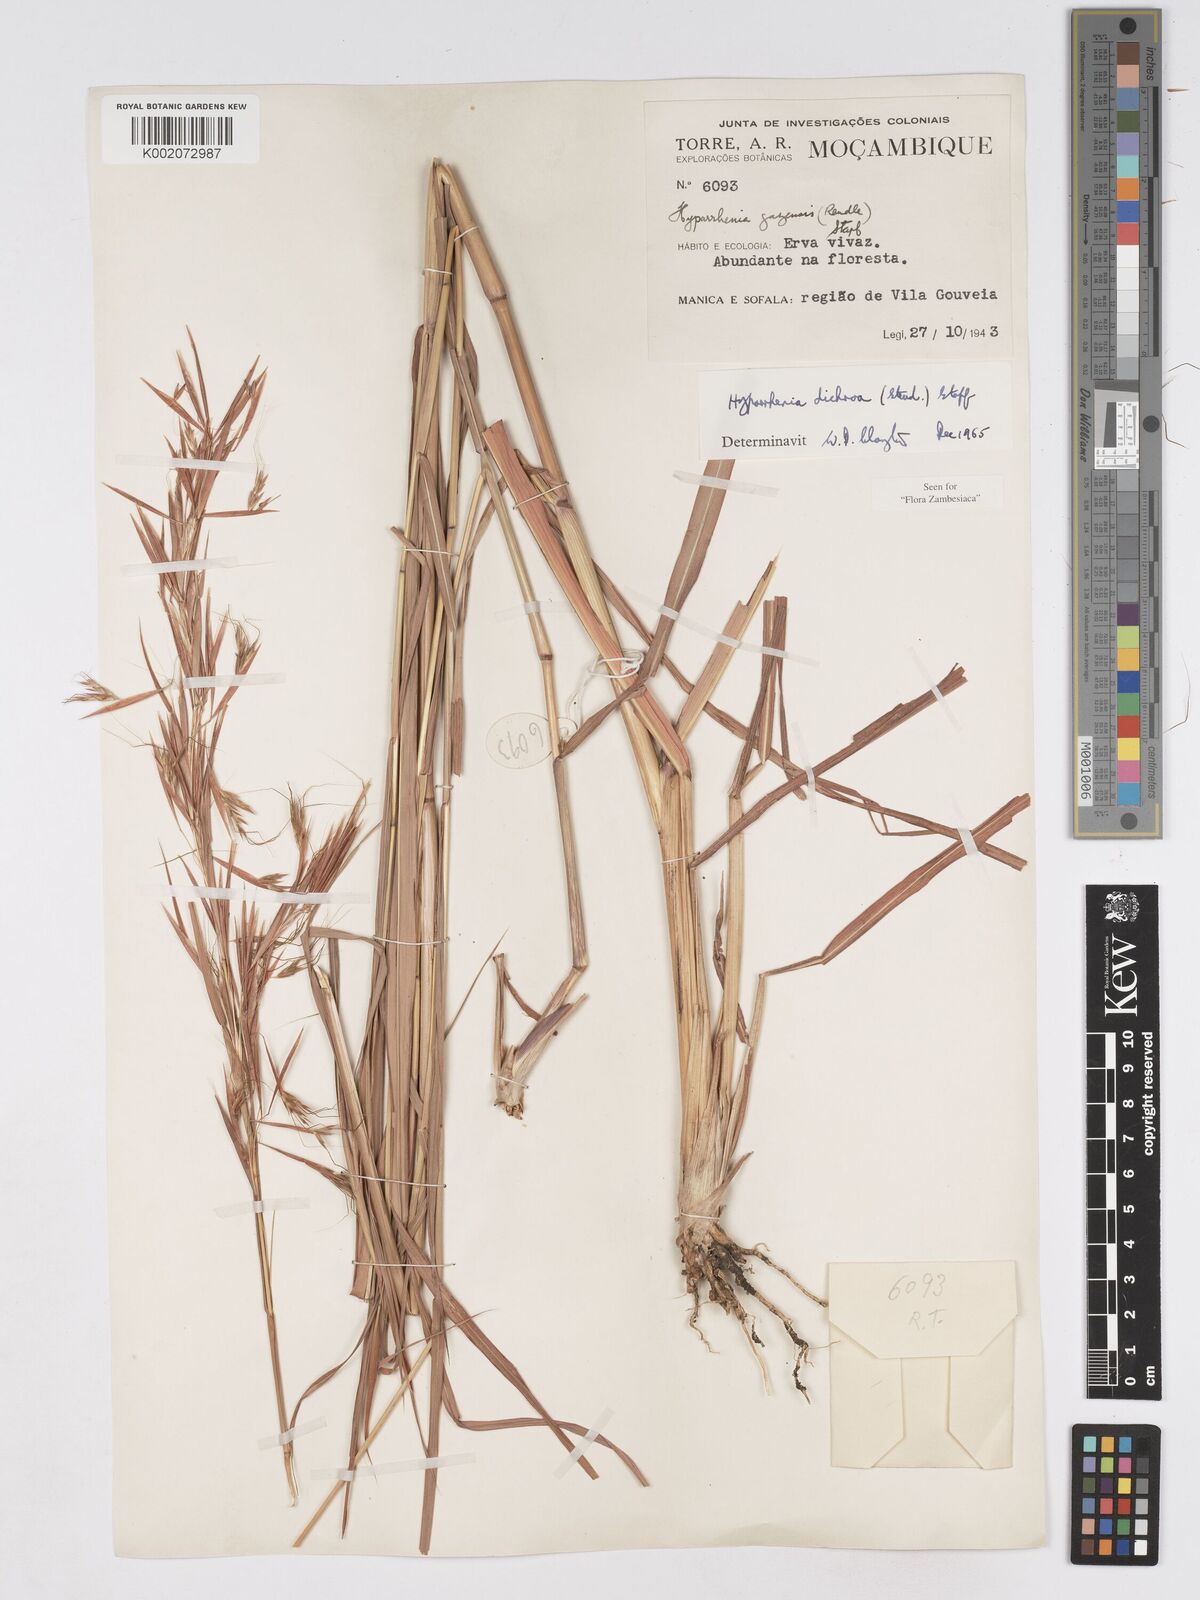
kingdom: Plantae
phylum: Tracheophyta
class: Liliopsida
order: Poales
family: Poaceae
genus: Hyparrhenia
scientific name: Hyparrhenia dichroa
